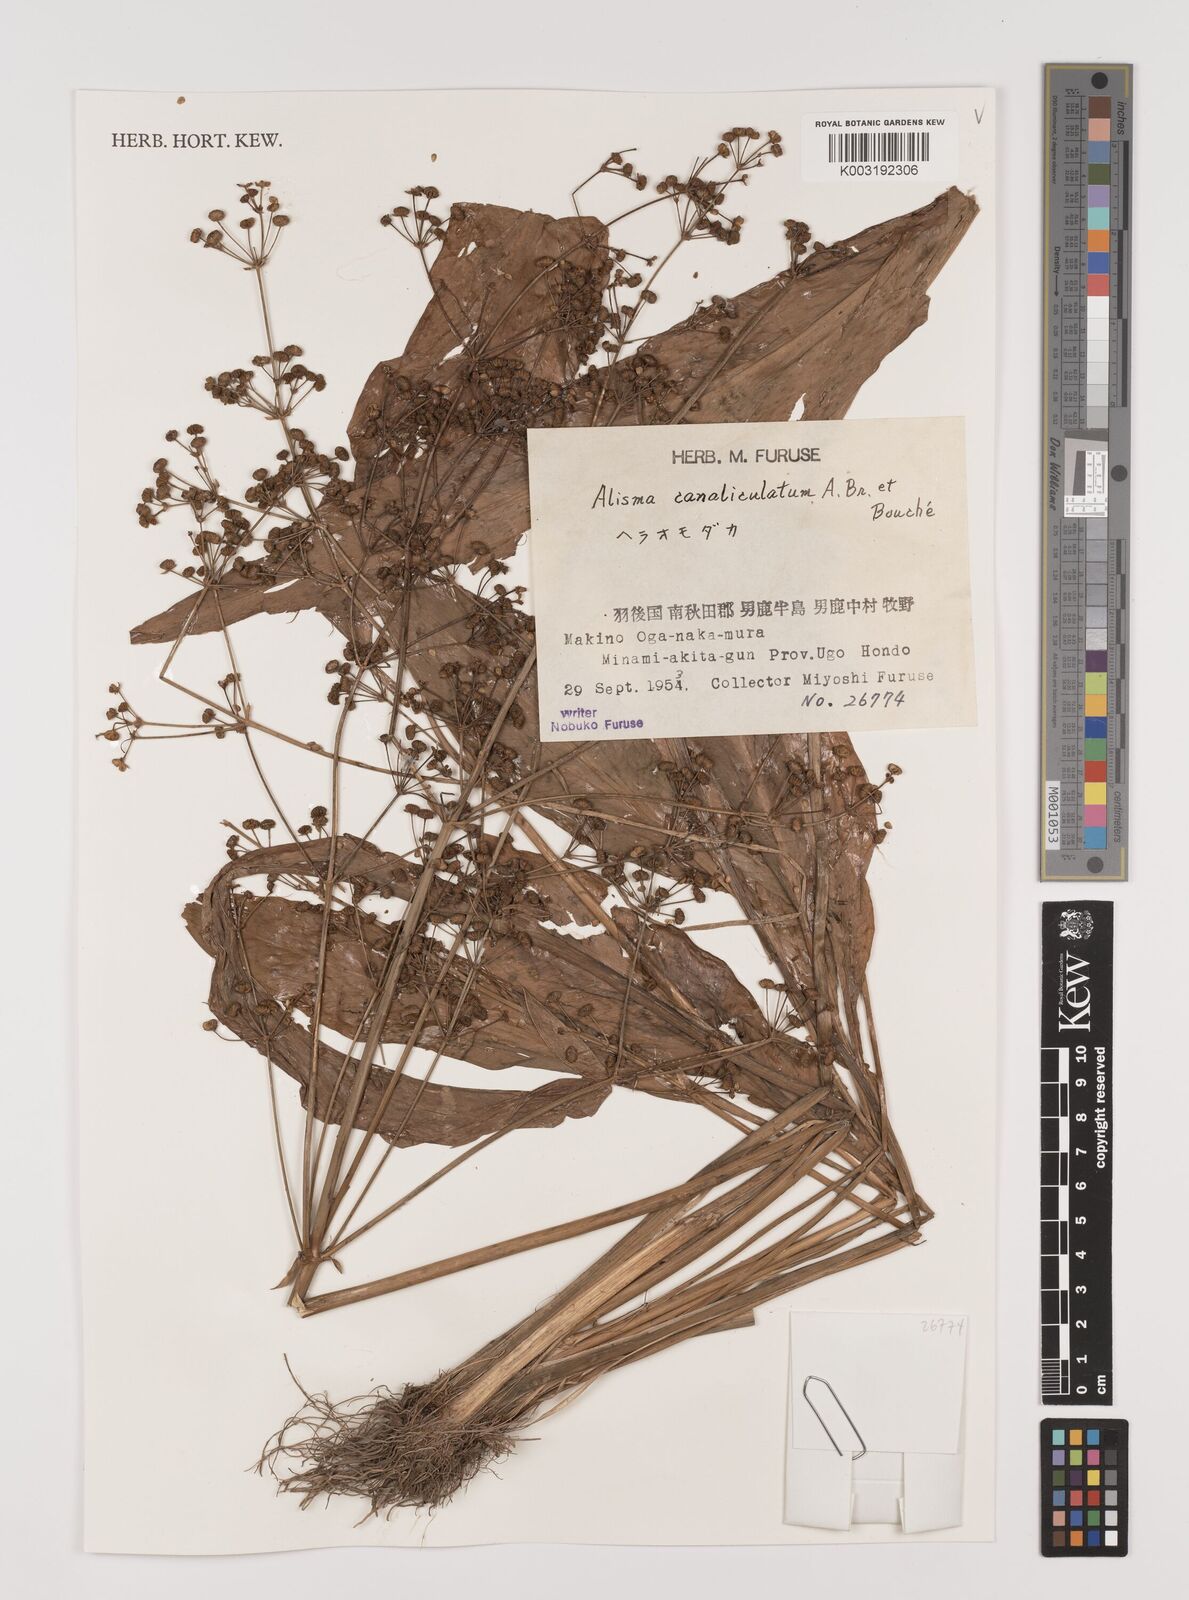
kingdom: Plantae
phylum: Tracheophyta
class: Liliopsida
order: Alismatales
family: Alismataceae
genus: Alisma
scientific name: Alisma canaliculatum
